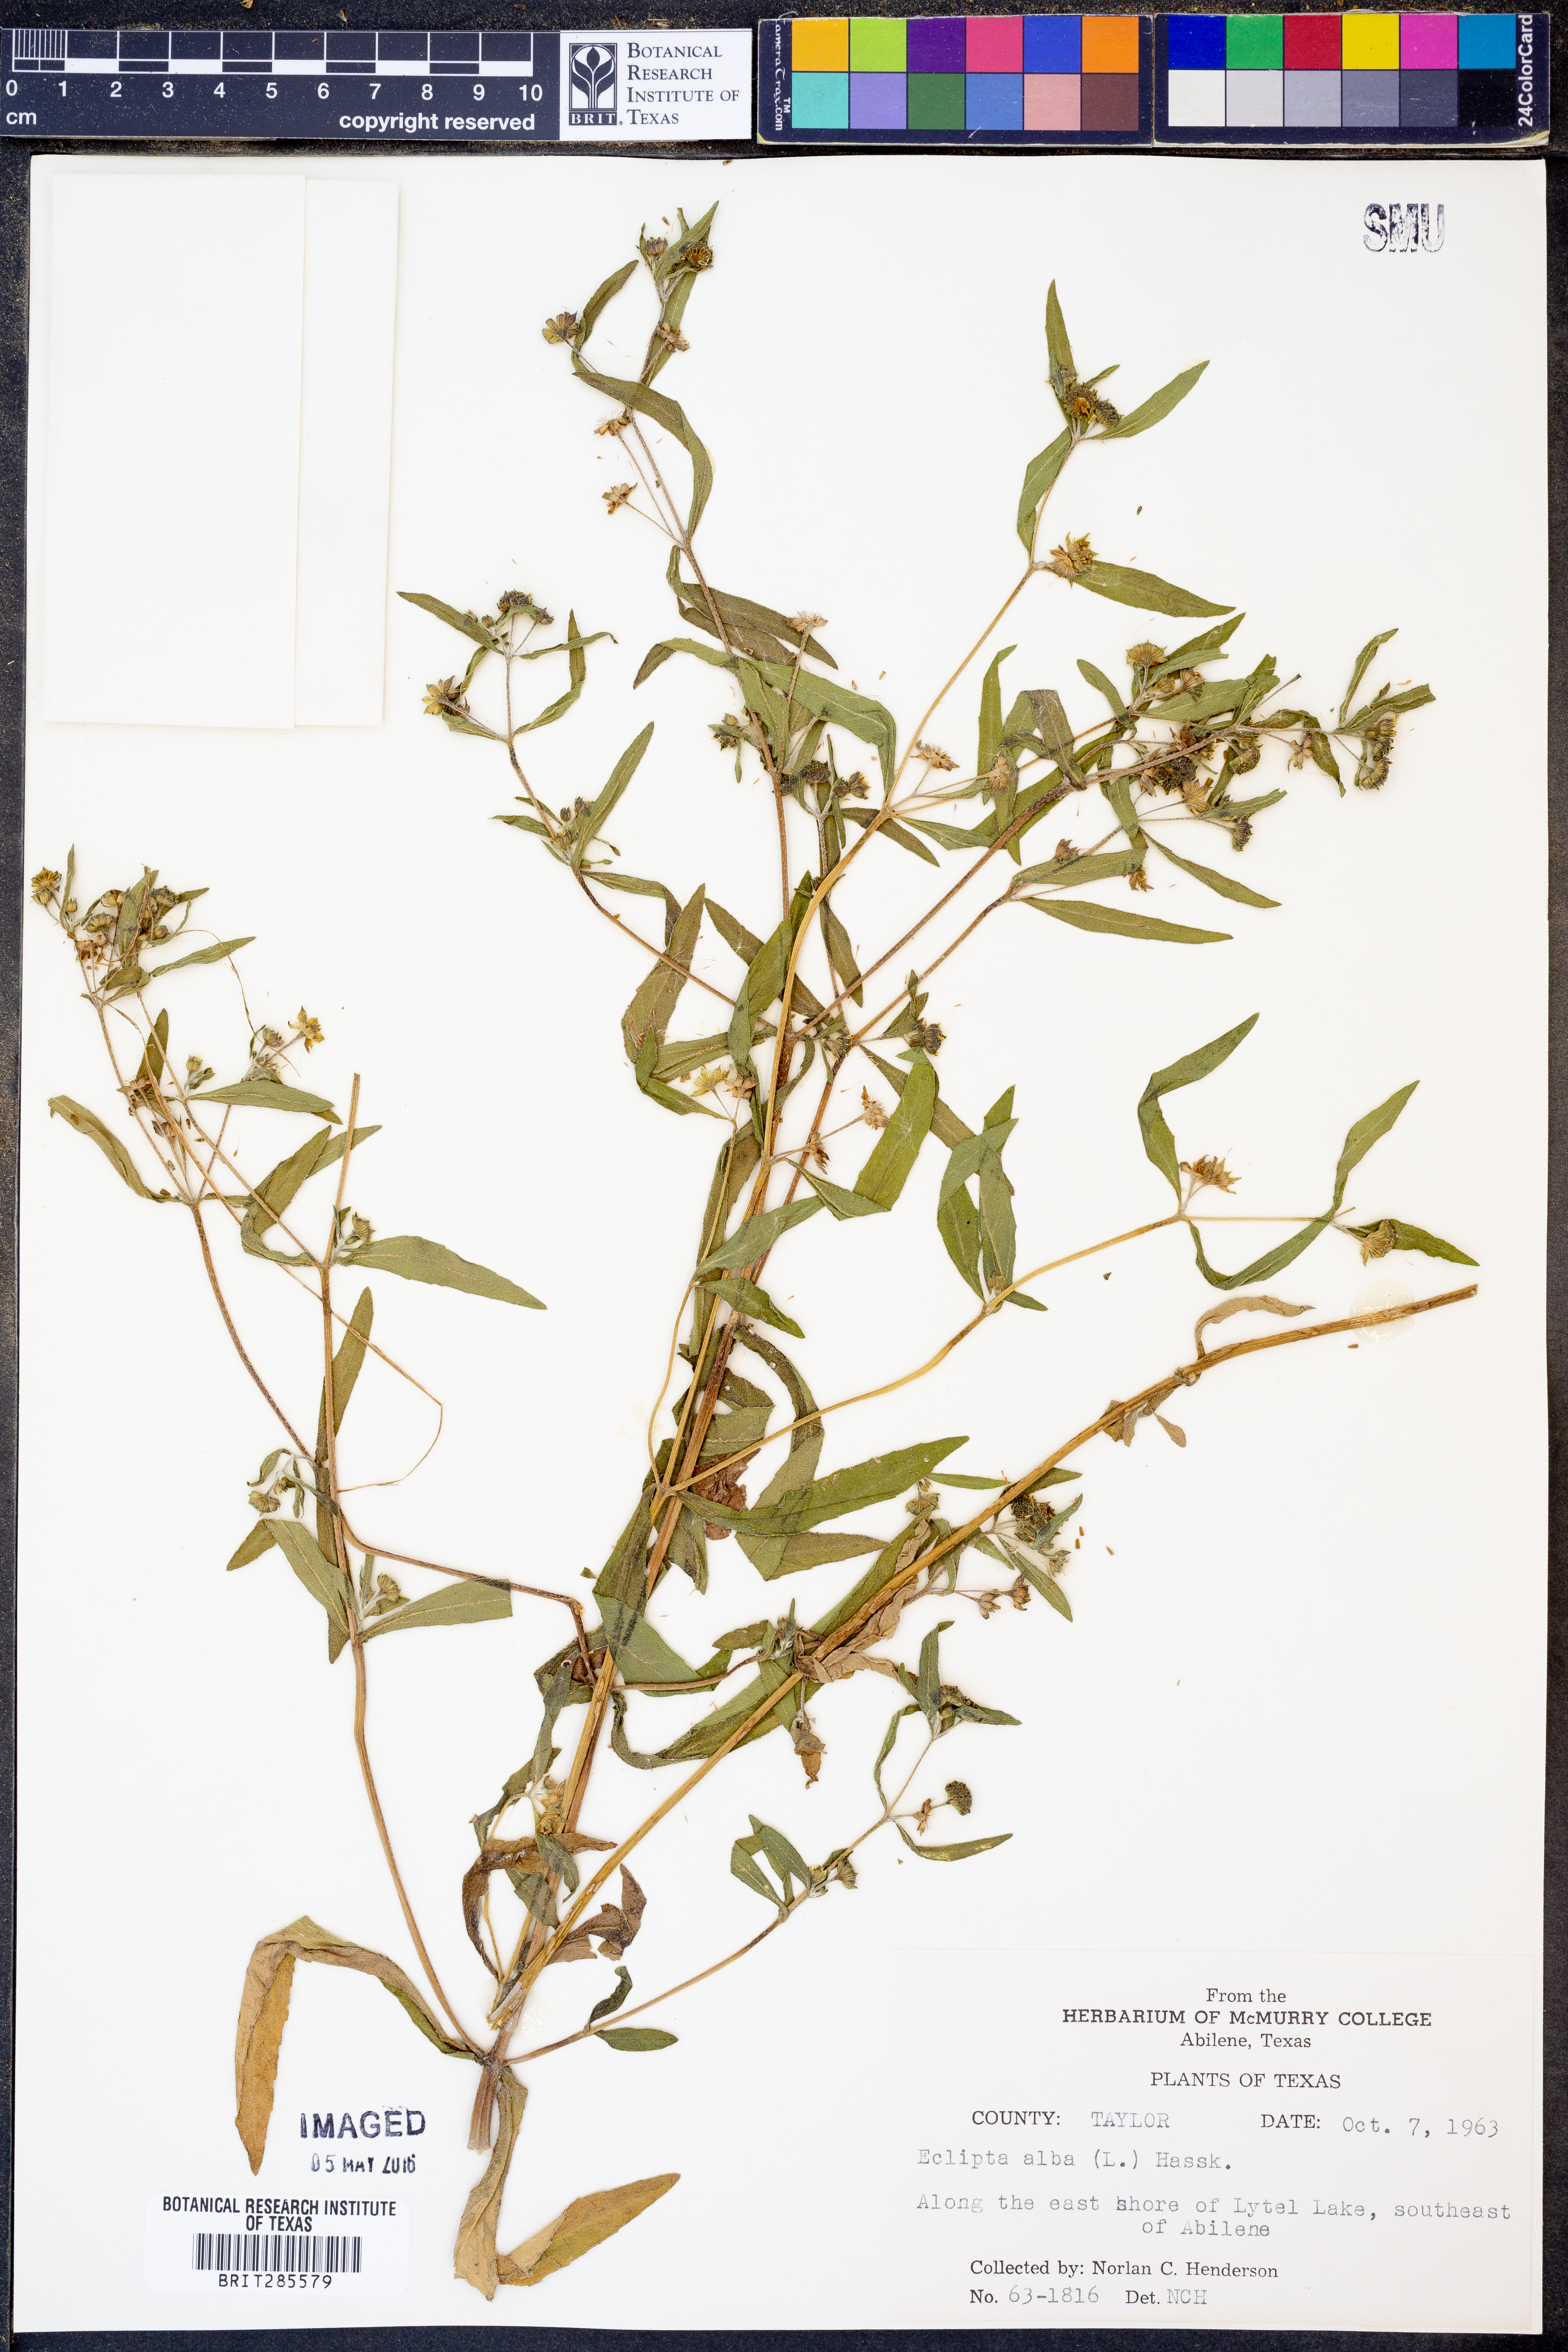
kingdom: Plantae
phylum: Tracheophyta
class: Magnoliopsida
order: Asterales
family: Asteraceae
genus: Eclipta
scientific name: Eclipta alba
